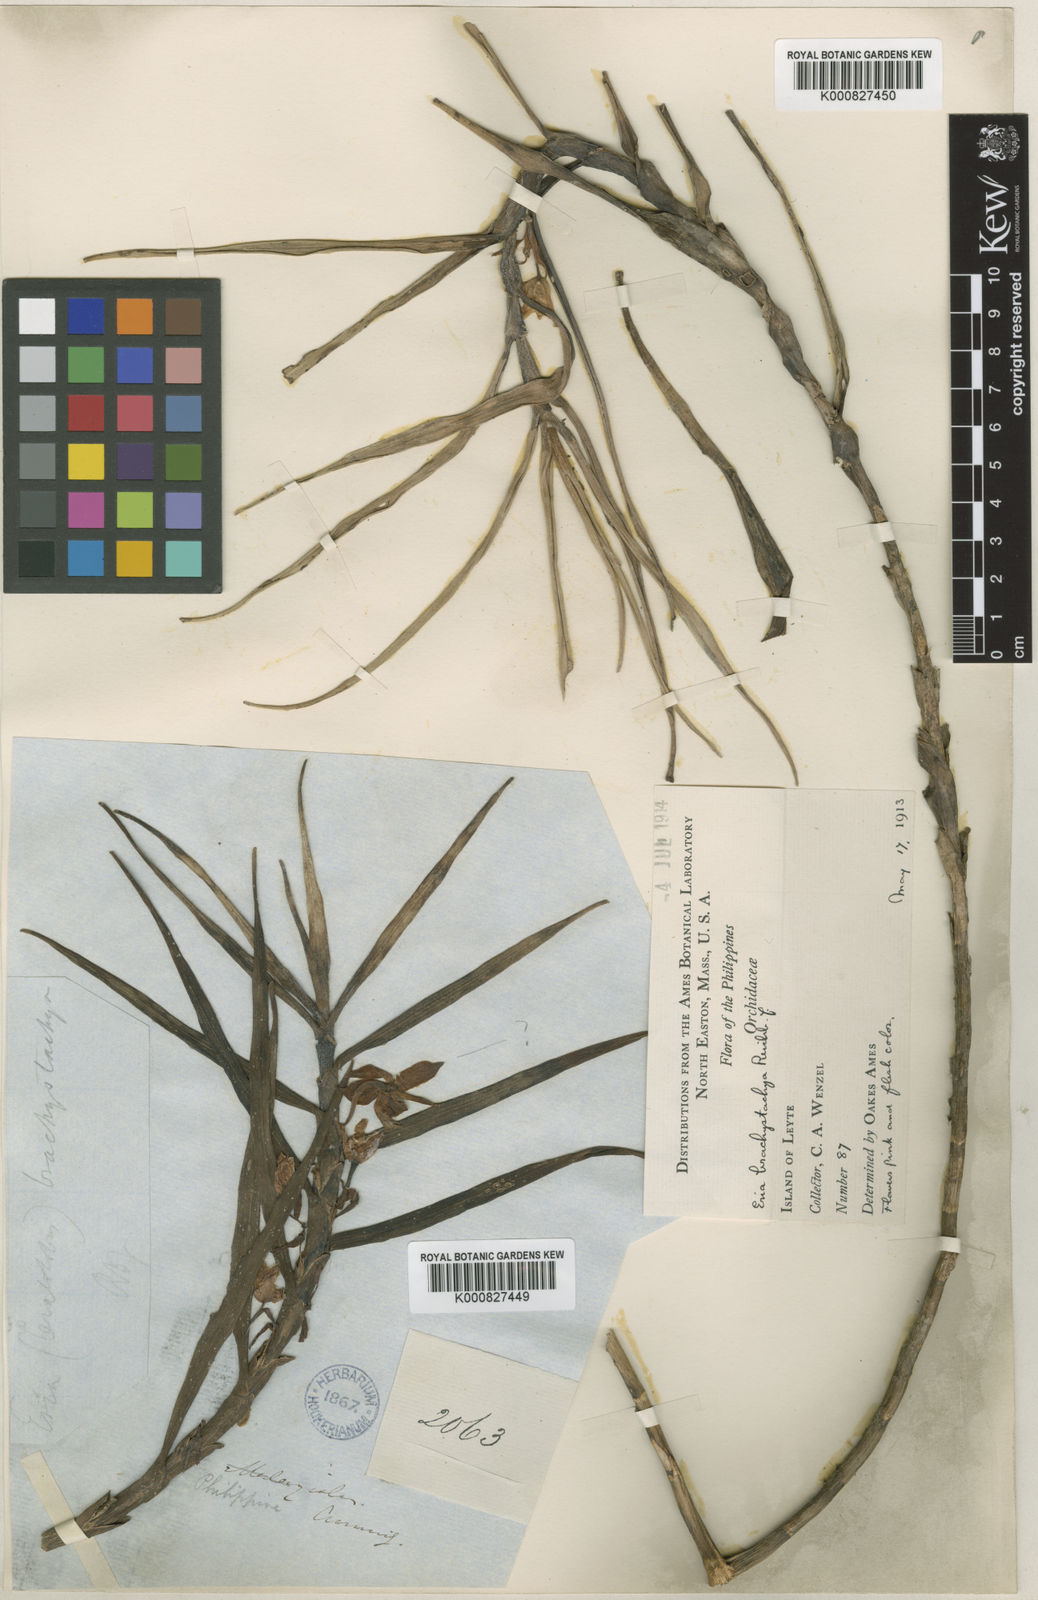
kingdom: Plantae
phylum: Tracheophyta
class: Liliopsida
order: Asparagales
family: Orchidaceae
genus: Cylindrolobus
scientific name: Cylindrolobus brachystachyus
